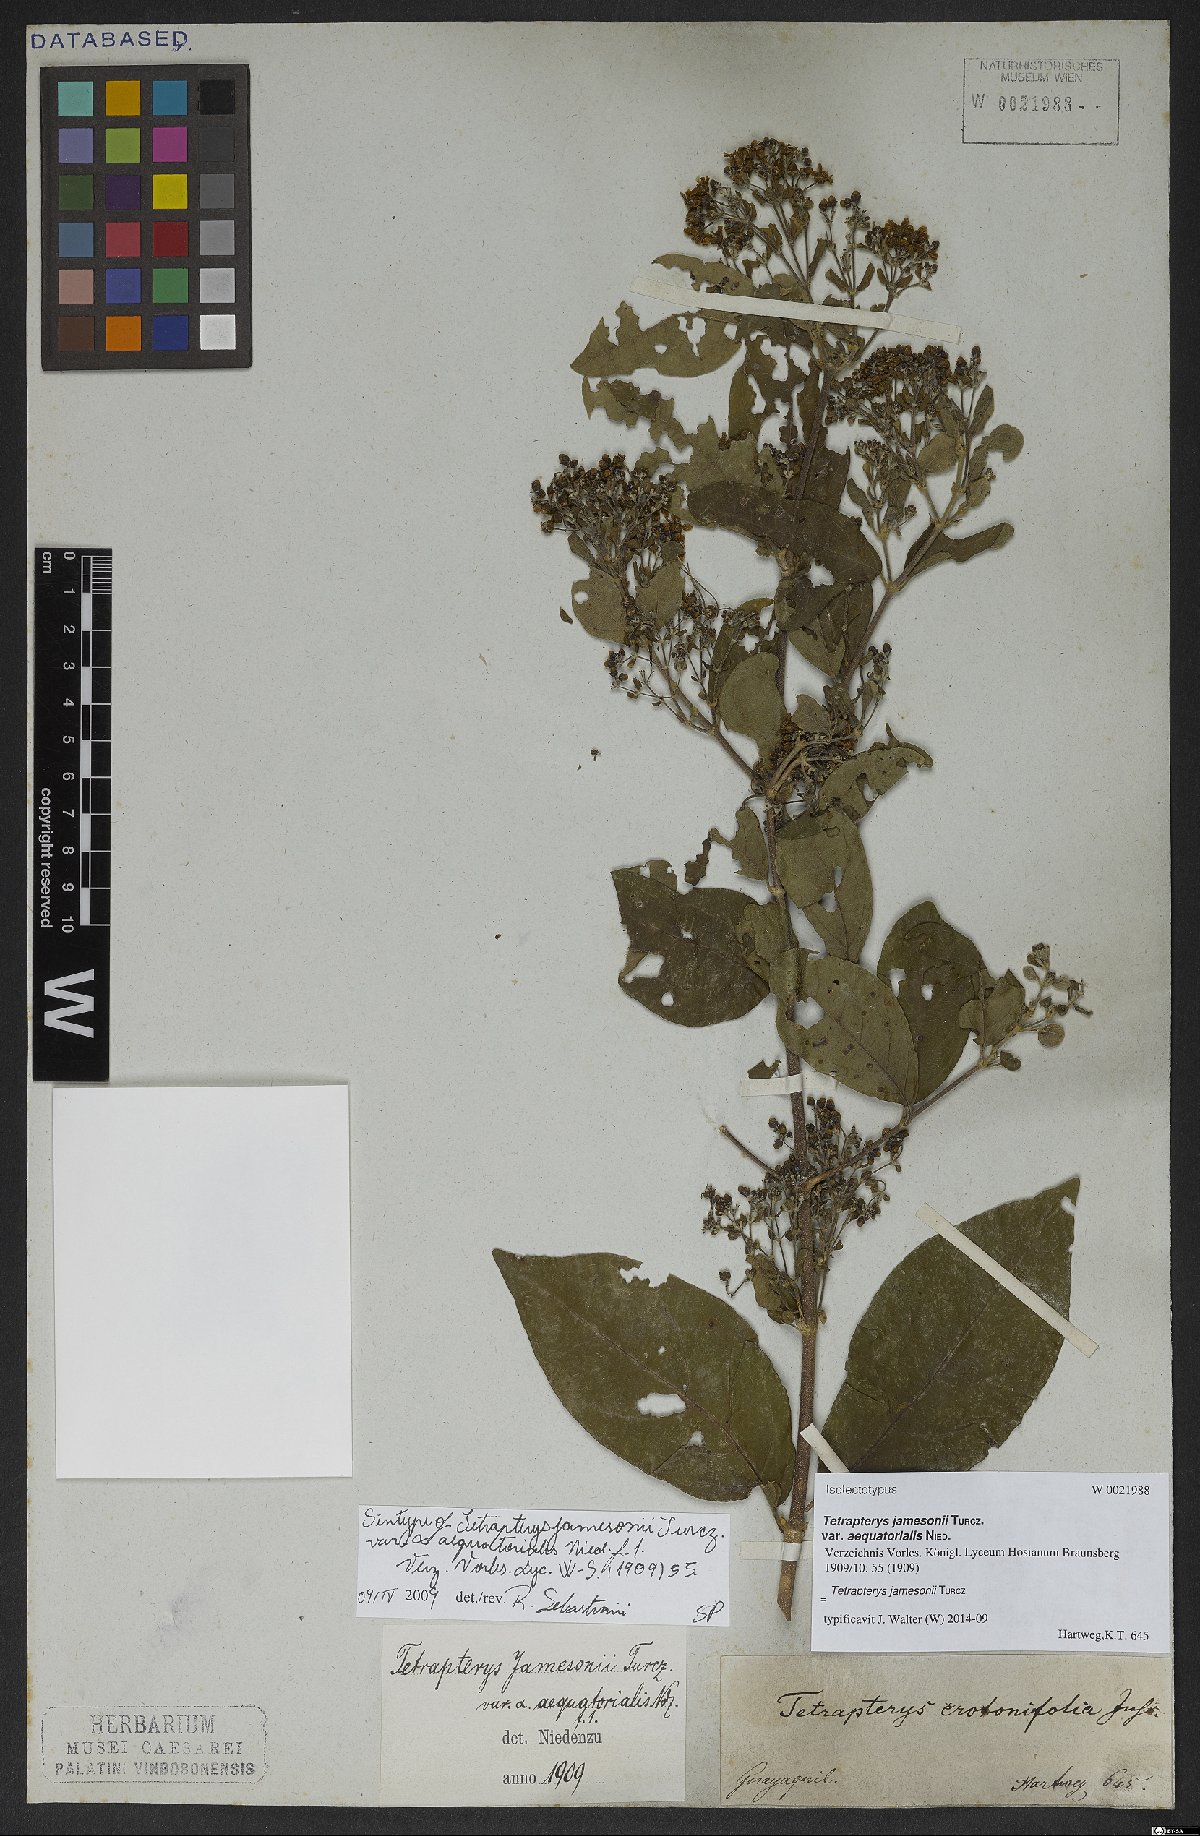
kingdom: Plantae
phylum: Tracheophyta
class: Magnoliopsida
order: Malpighiales
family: Malpighiaceae
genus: Tetrapterys
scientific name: Tetrapterys jamesonii
